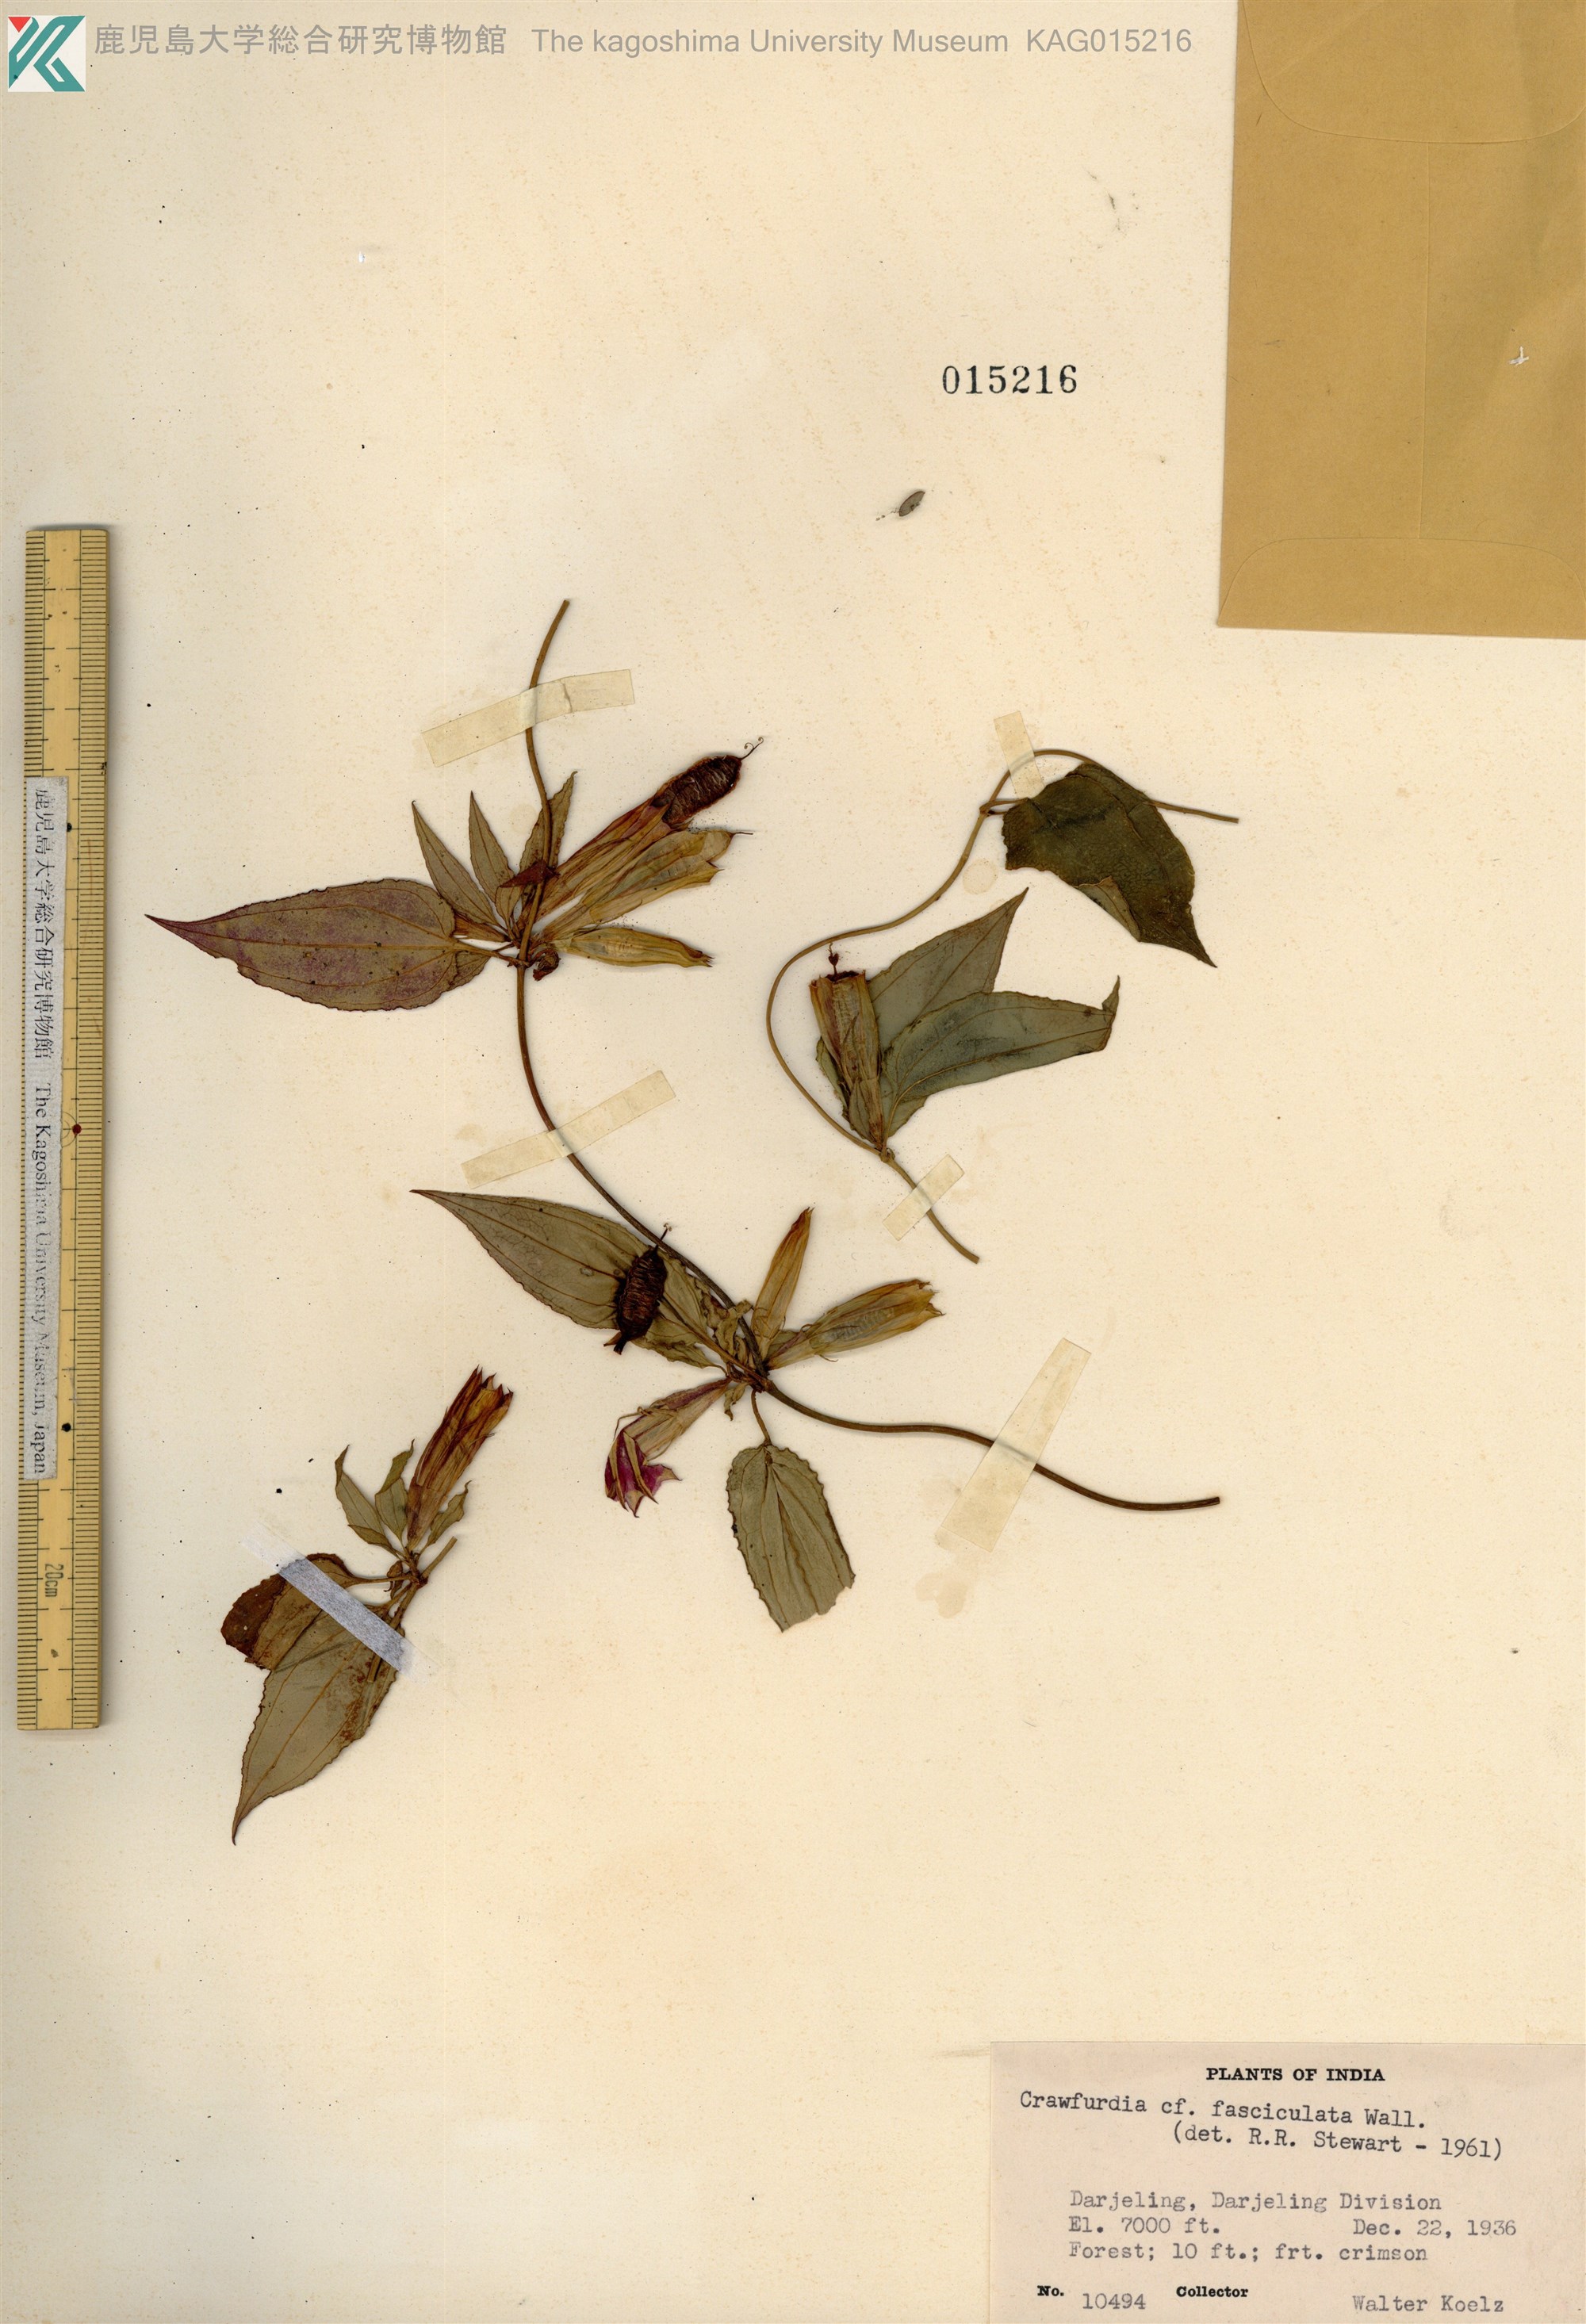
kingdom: Plantae
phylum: Tracheophyta
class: Magnoliopsida
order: Gentianales
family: Gentianaceae
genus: Tripterospermum
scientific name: Tripterospermum fasciculatum
